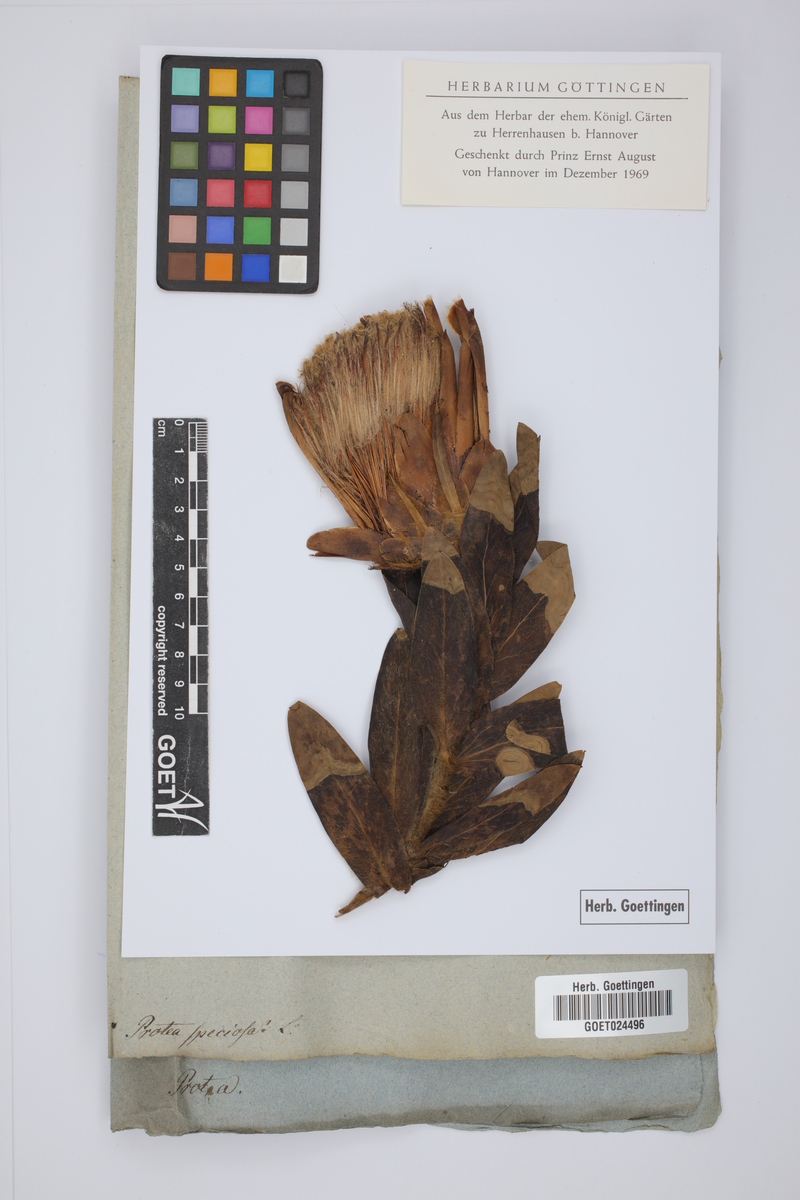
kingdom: Plantae
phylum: Tracheophyta
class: Magnoliopsida
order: Proteales
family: Proteaceae
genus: Protea
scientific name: Protea speciosa
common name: Brown-beard sugarbush
